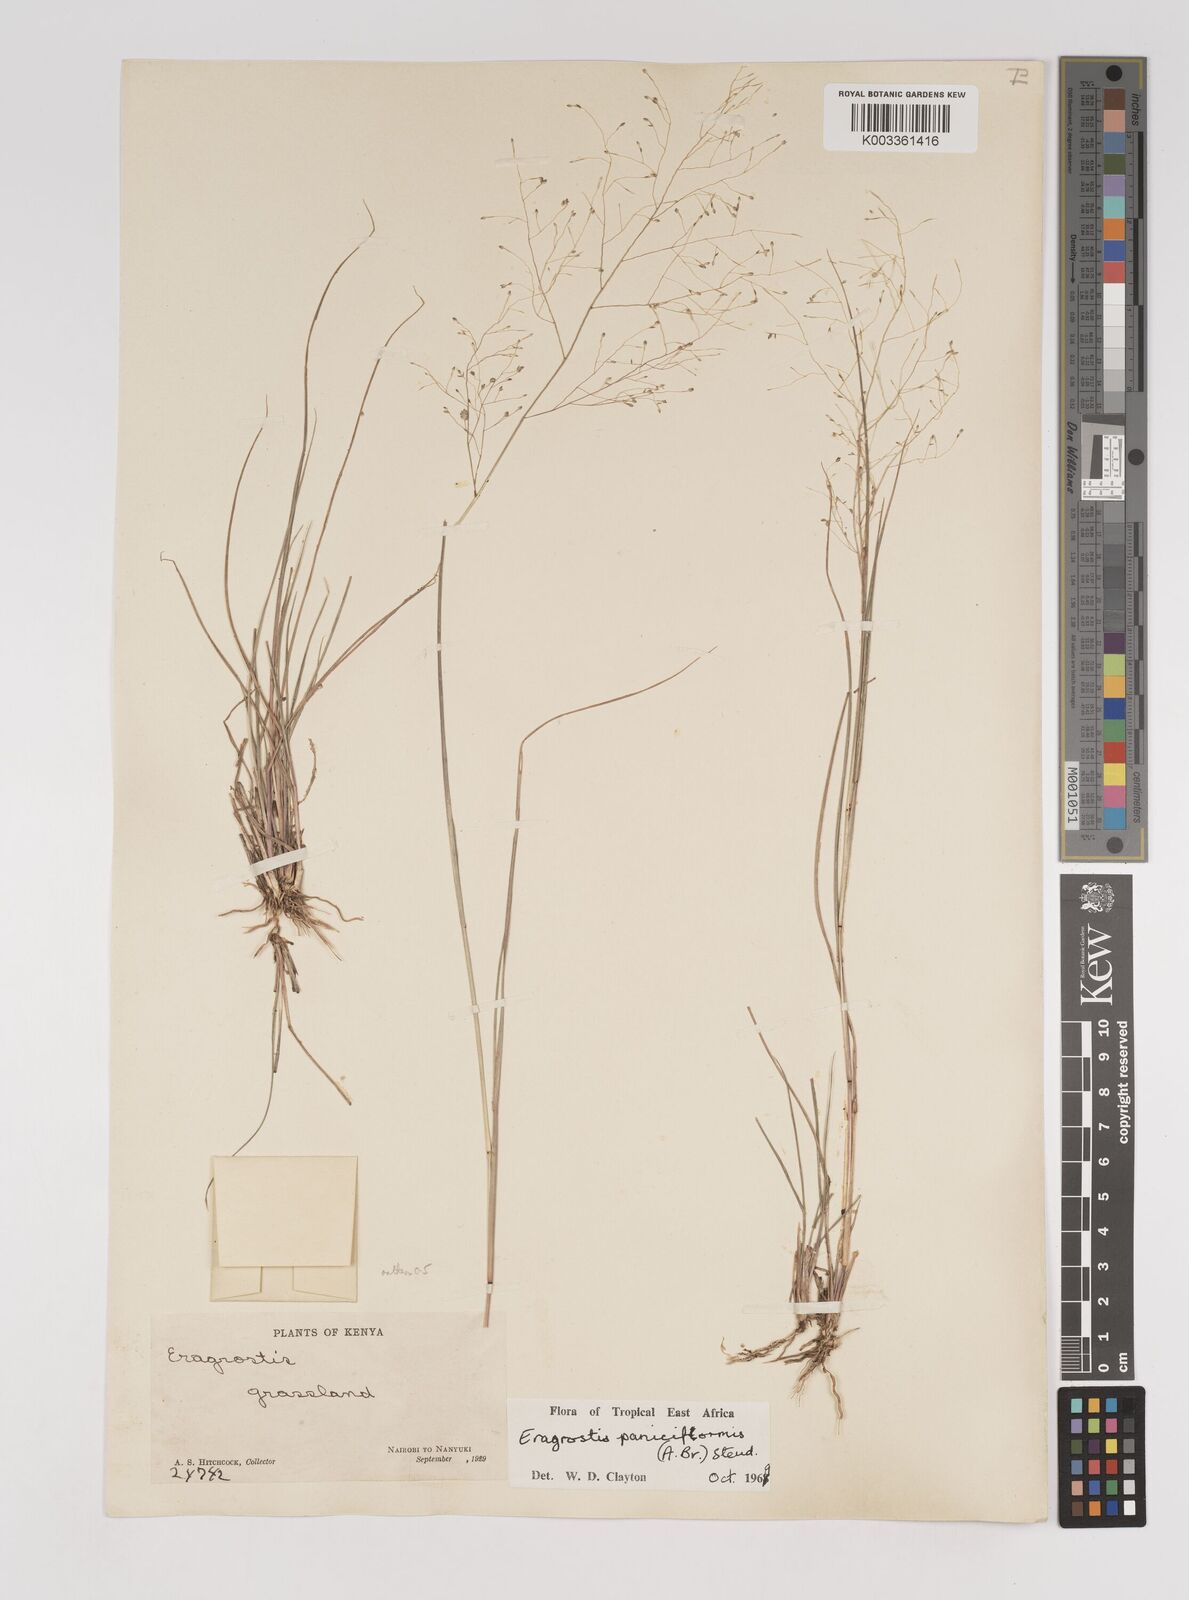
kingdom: Plantae
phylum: Tracheophyta
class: Liliopsida
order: Poales
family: Poaceae
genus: Eragrostis
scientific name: Eragrostis paniciformis
